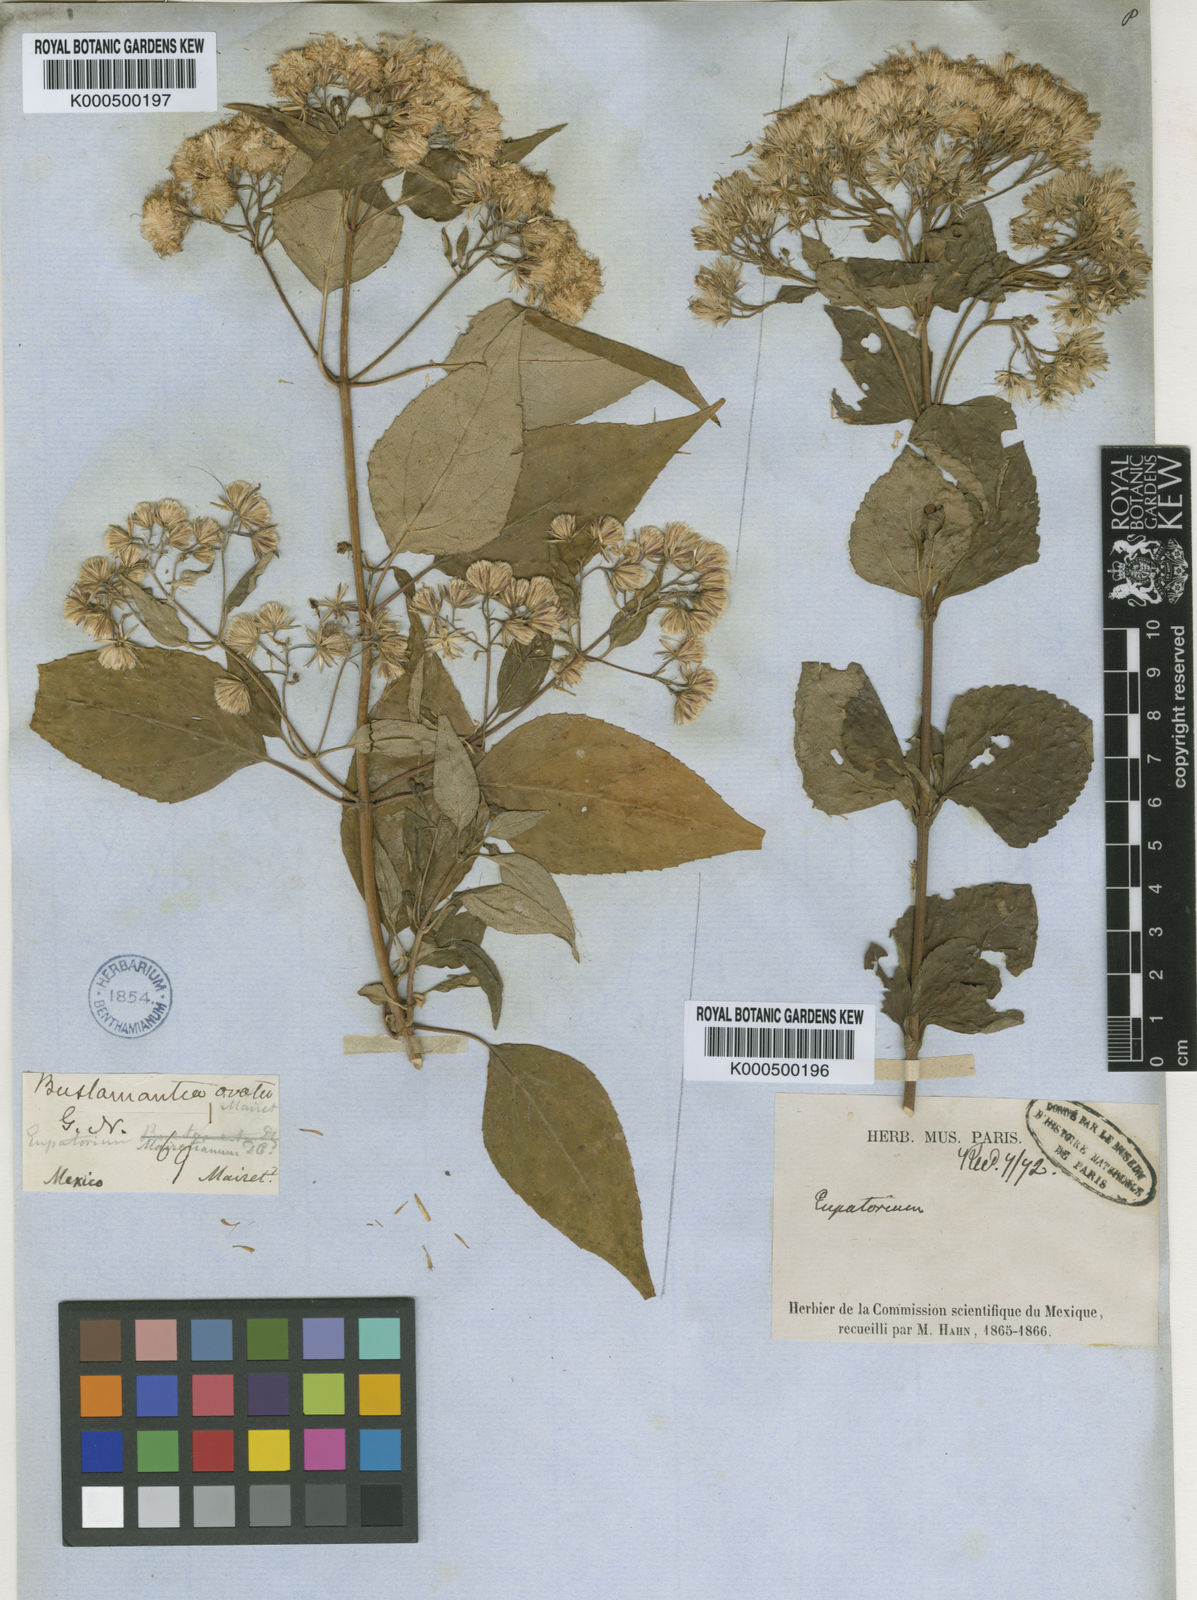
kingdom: Plantae
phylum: Tracheophyta
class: Magnoliopsida
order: Asterales
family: Asteraceae
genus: Ageratina
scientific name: Ageratina bustamenta
